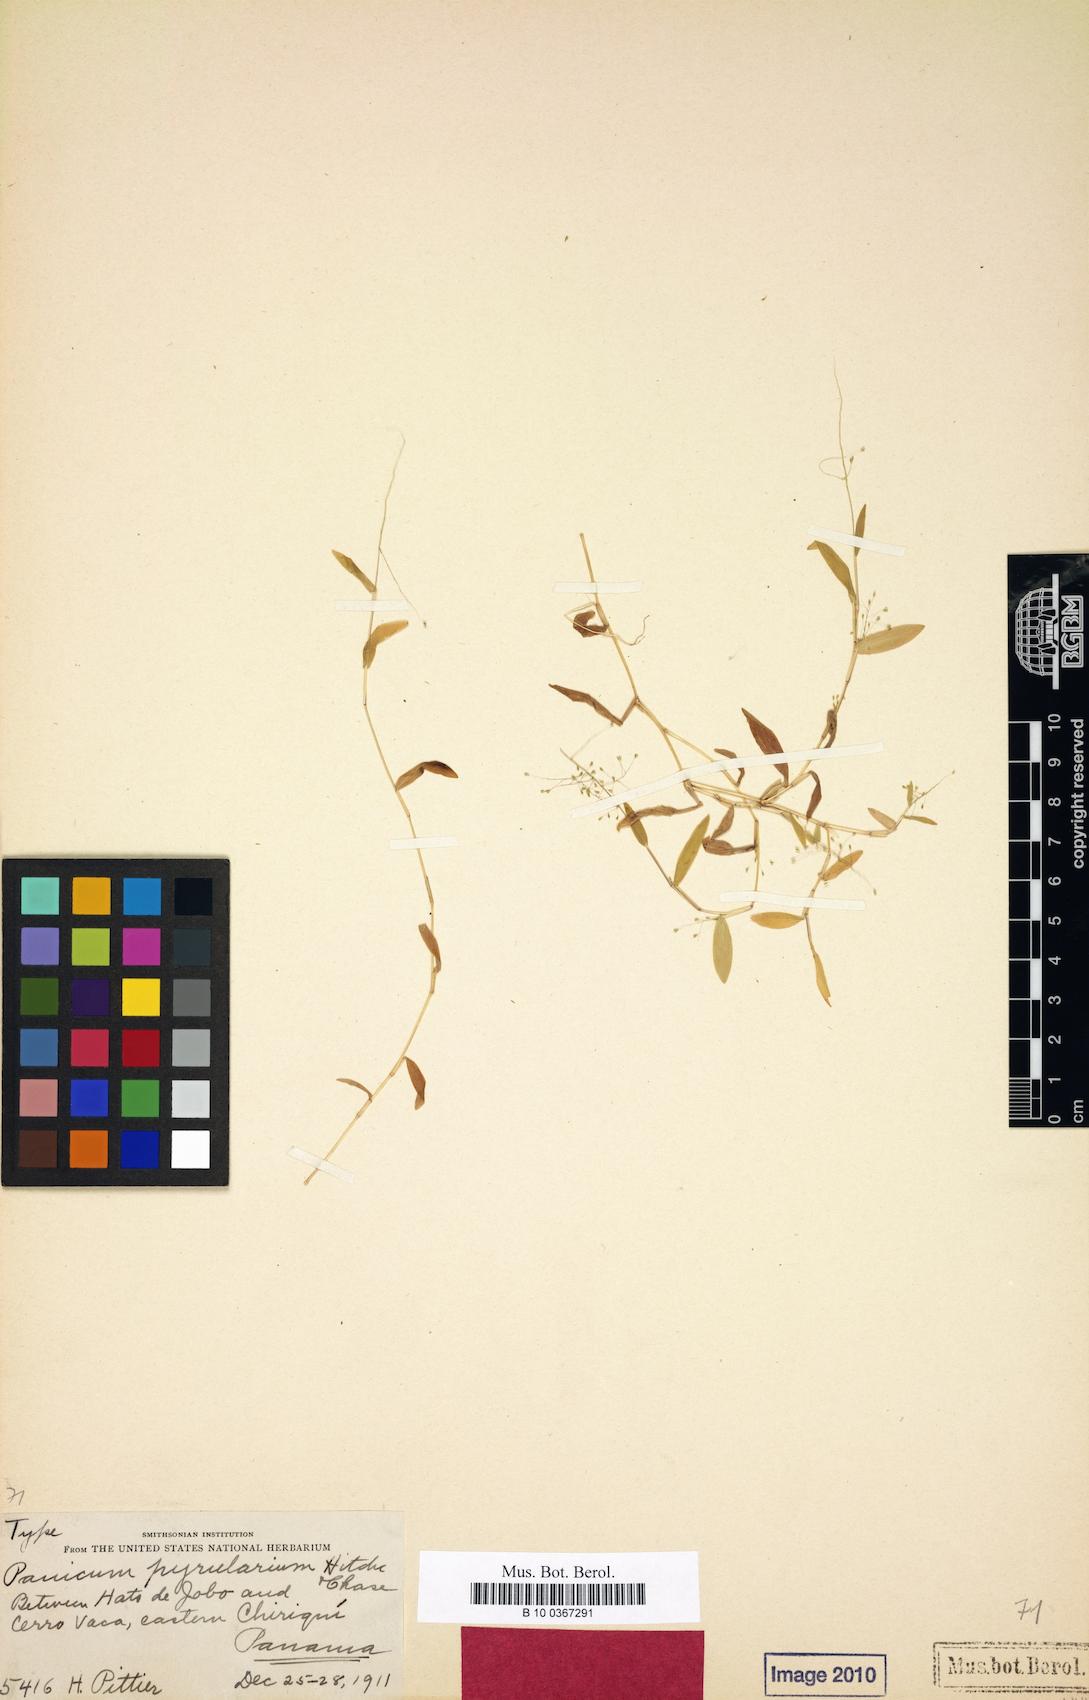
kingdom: Plantae
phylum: Tracheophyta
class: Liliopsida
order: Poales
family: Poaceae
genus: Trichanthecium
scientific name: Trichanthecium pyrularium
